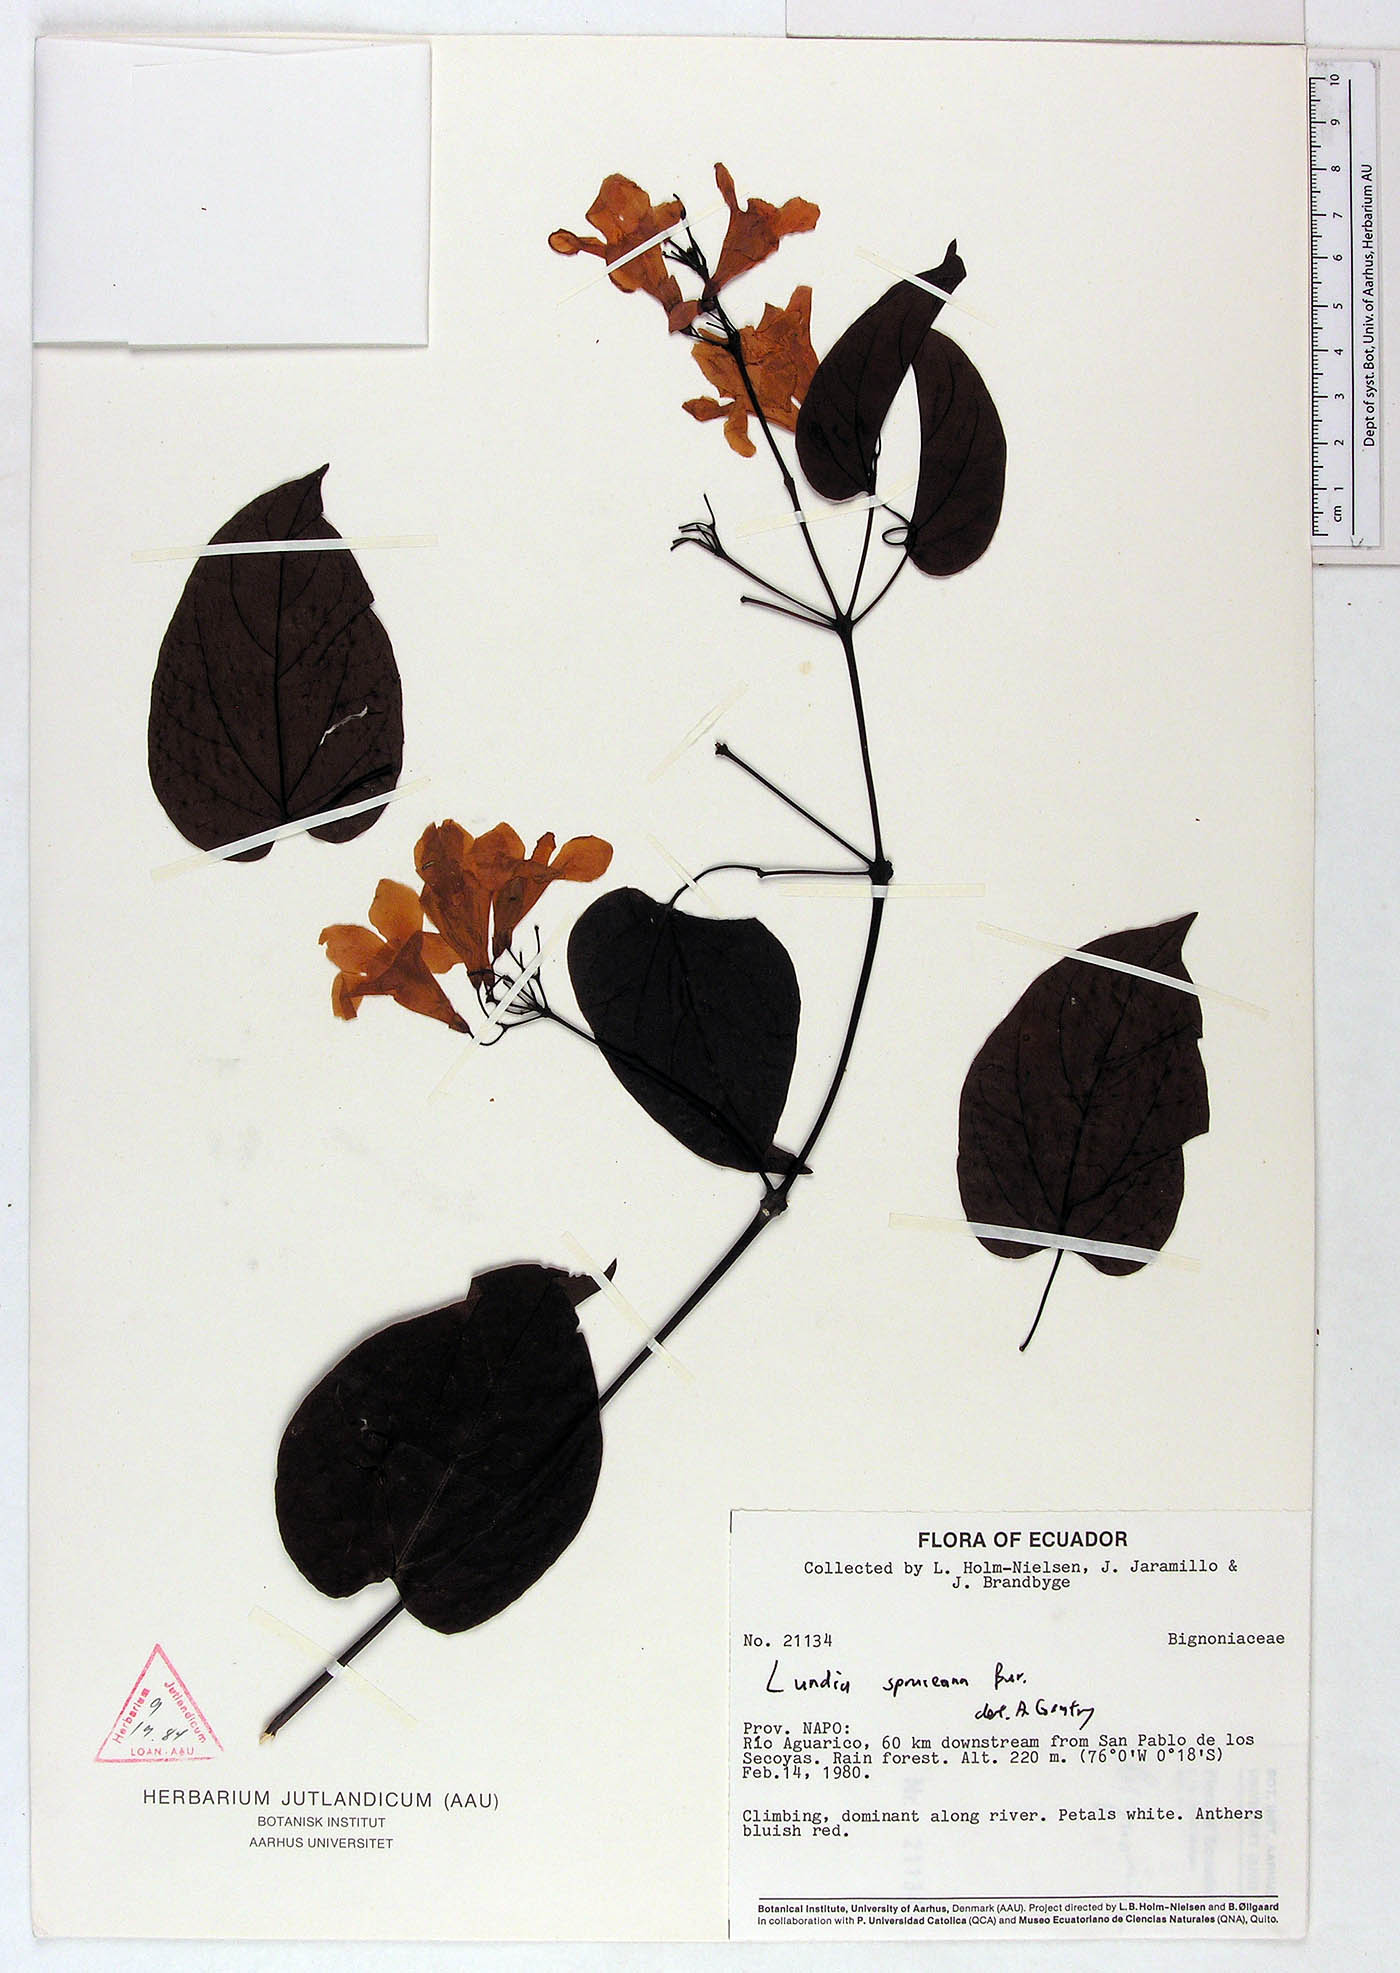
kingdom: Plantae
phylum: Tracheophyta
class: Magnoliopsida
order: Lamiales
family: Bignoniaceae
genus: Lundia
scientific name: Lundia spruceana
